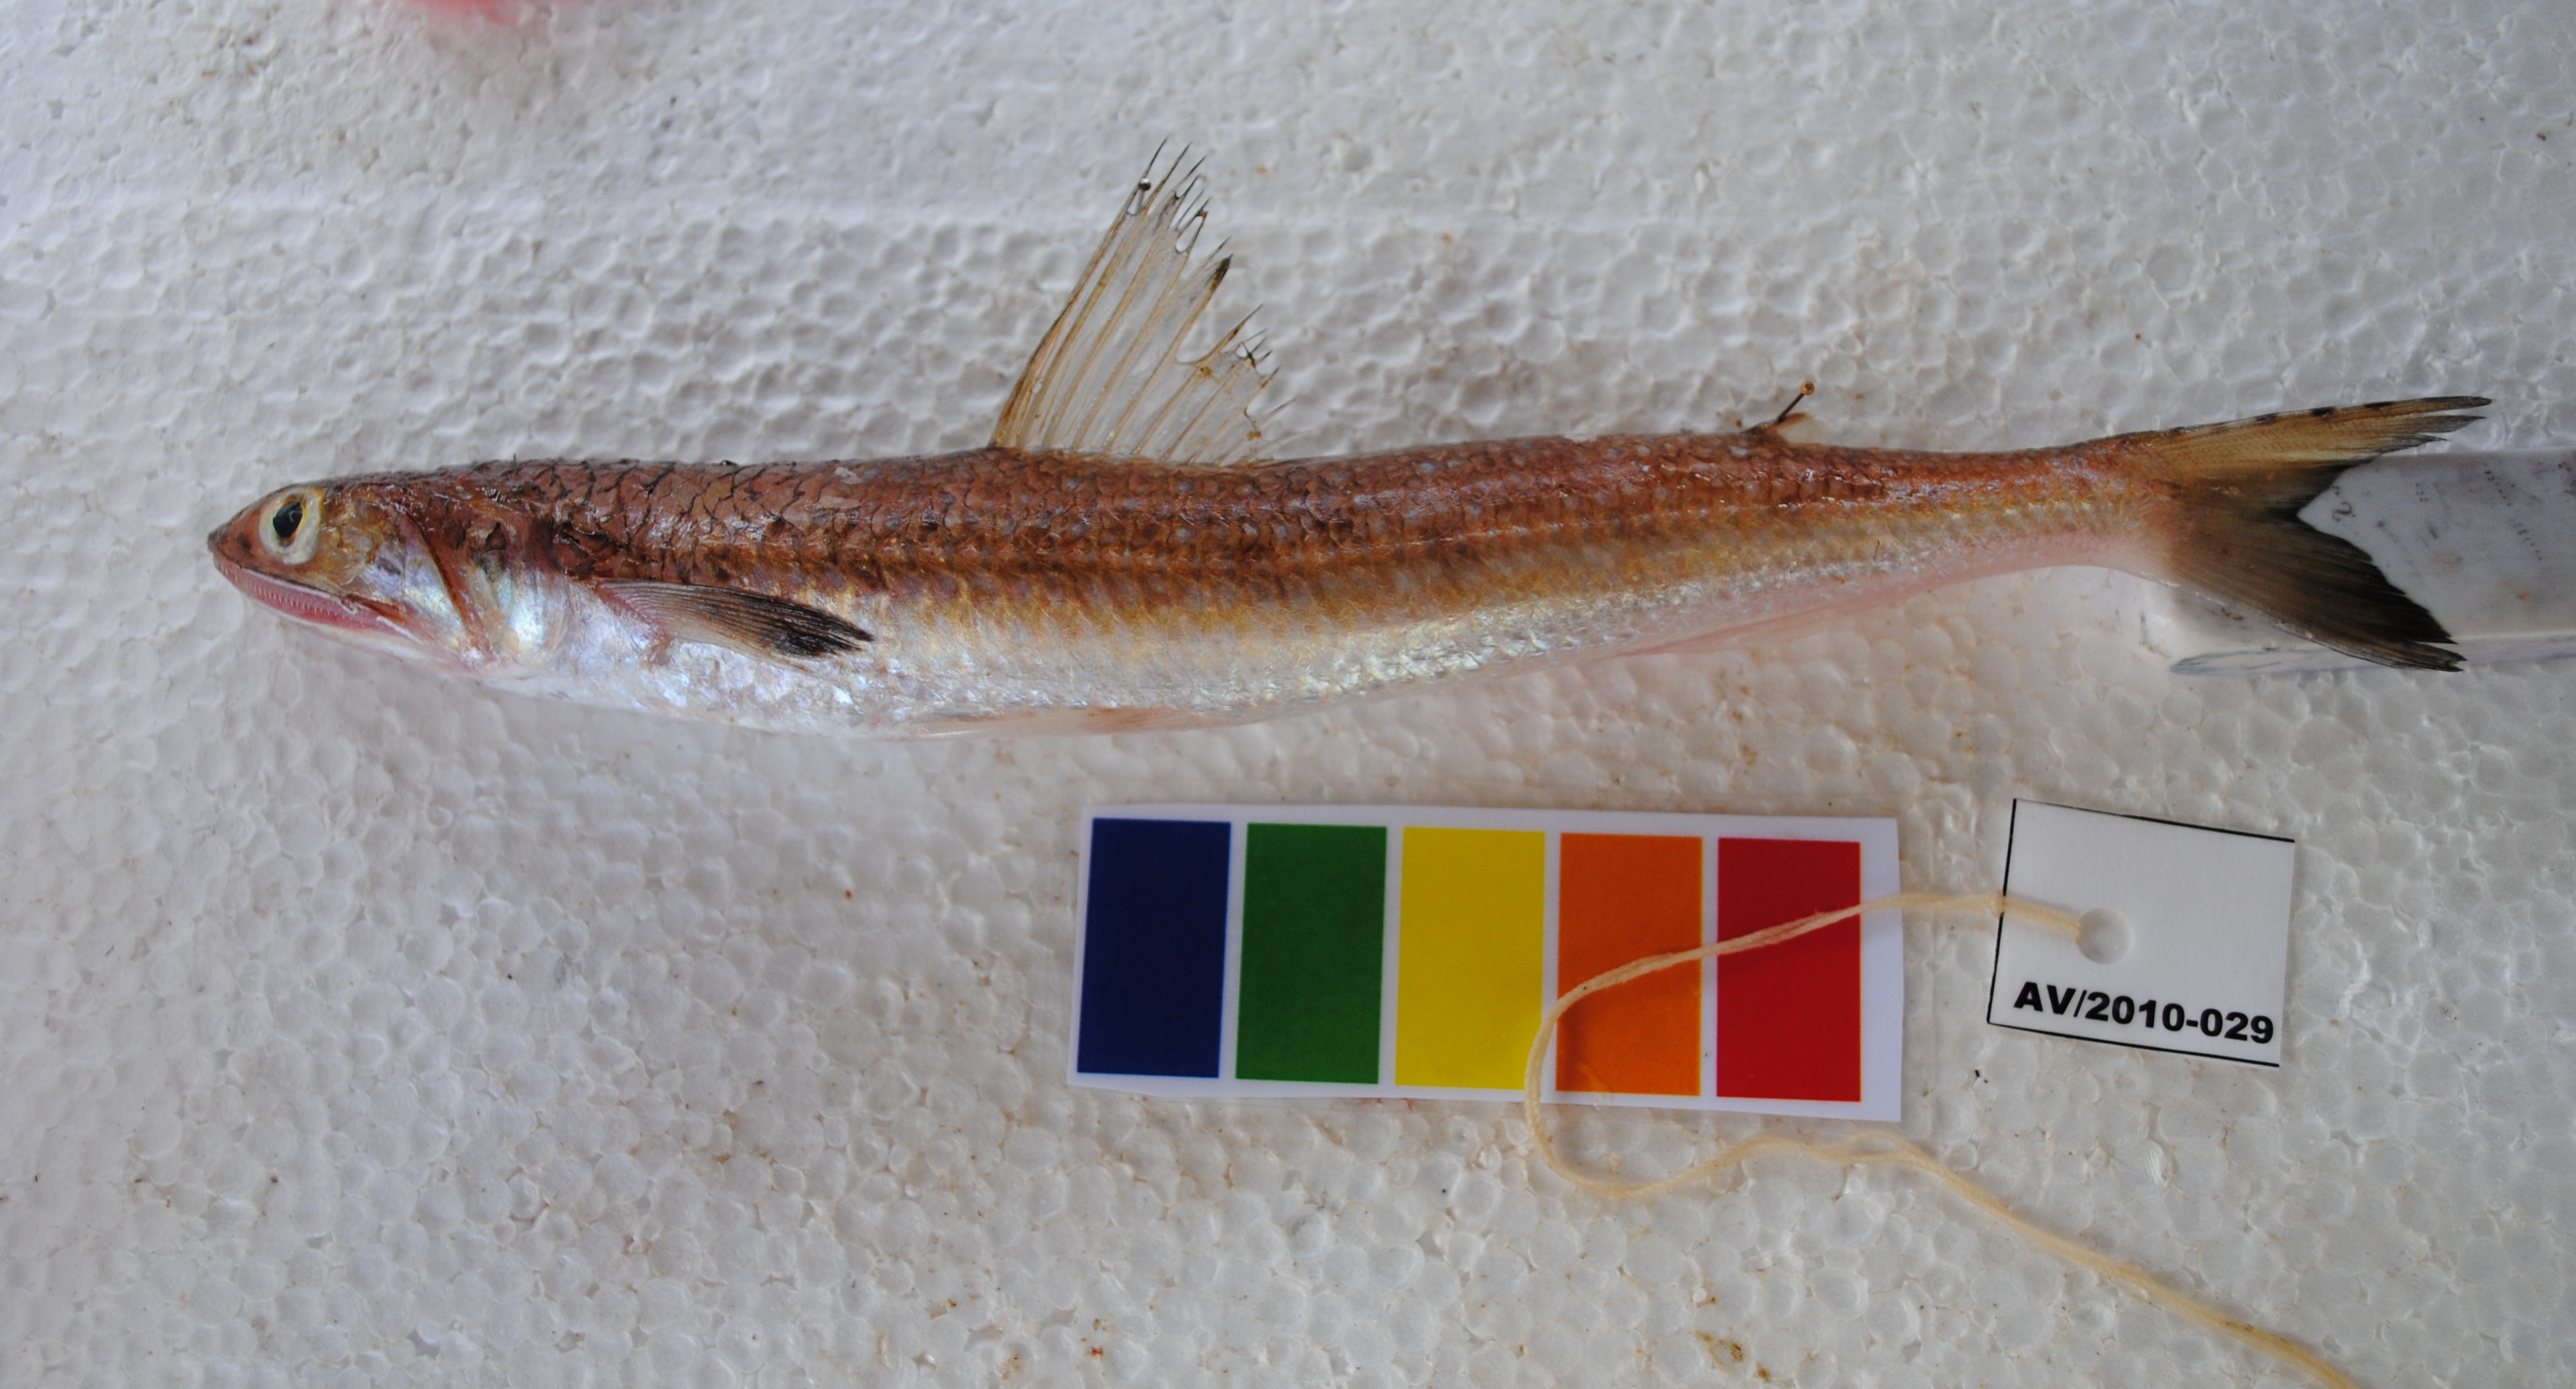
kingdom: Animalia
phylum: Chordata
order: Aulopiformes
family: Synodontidae
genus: Saurida
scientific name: Saurida
